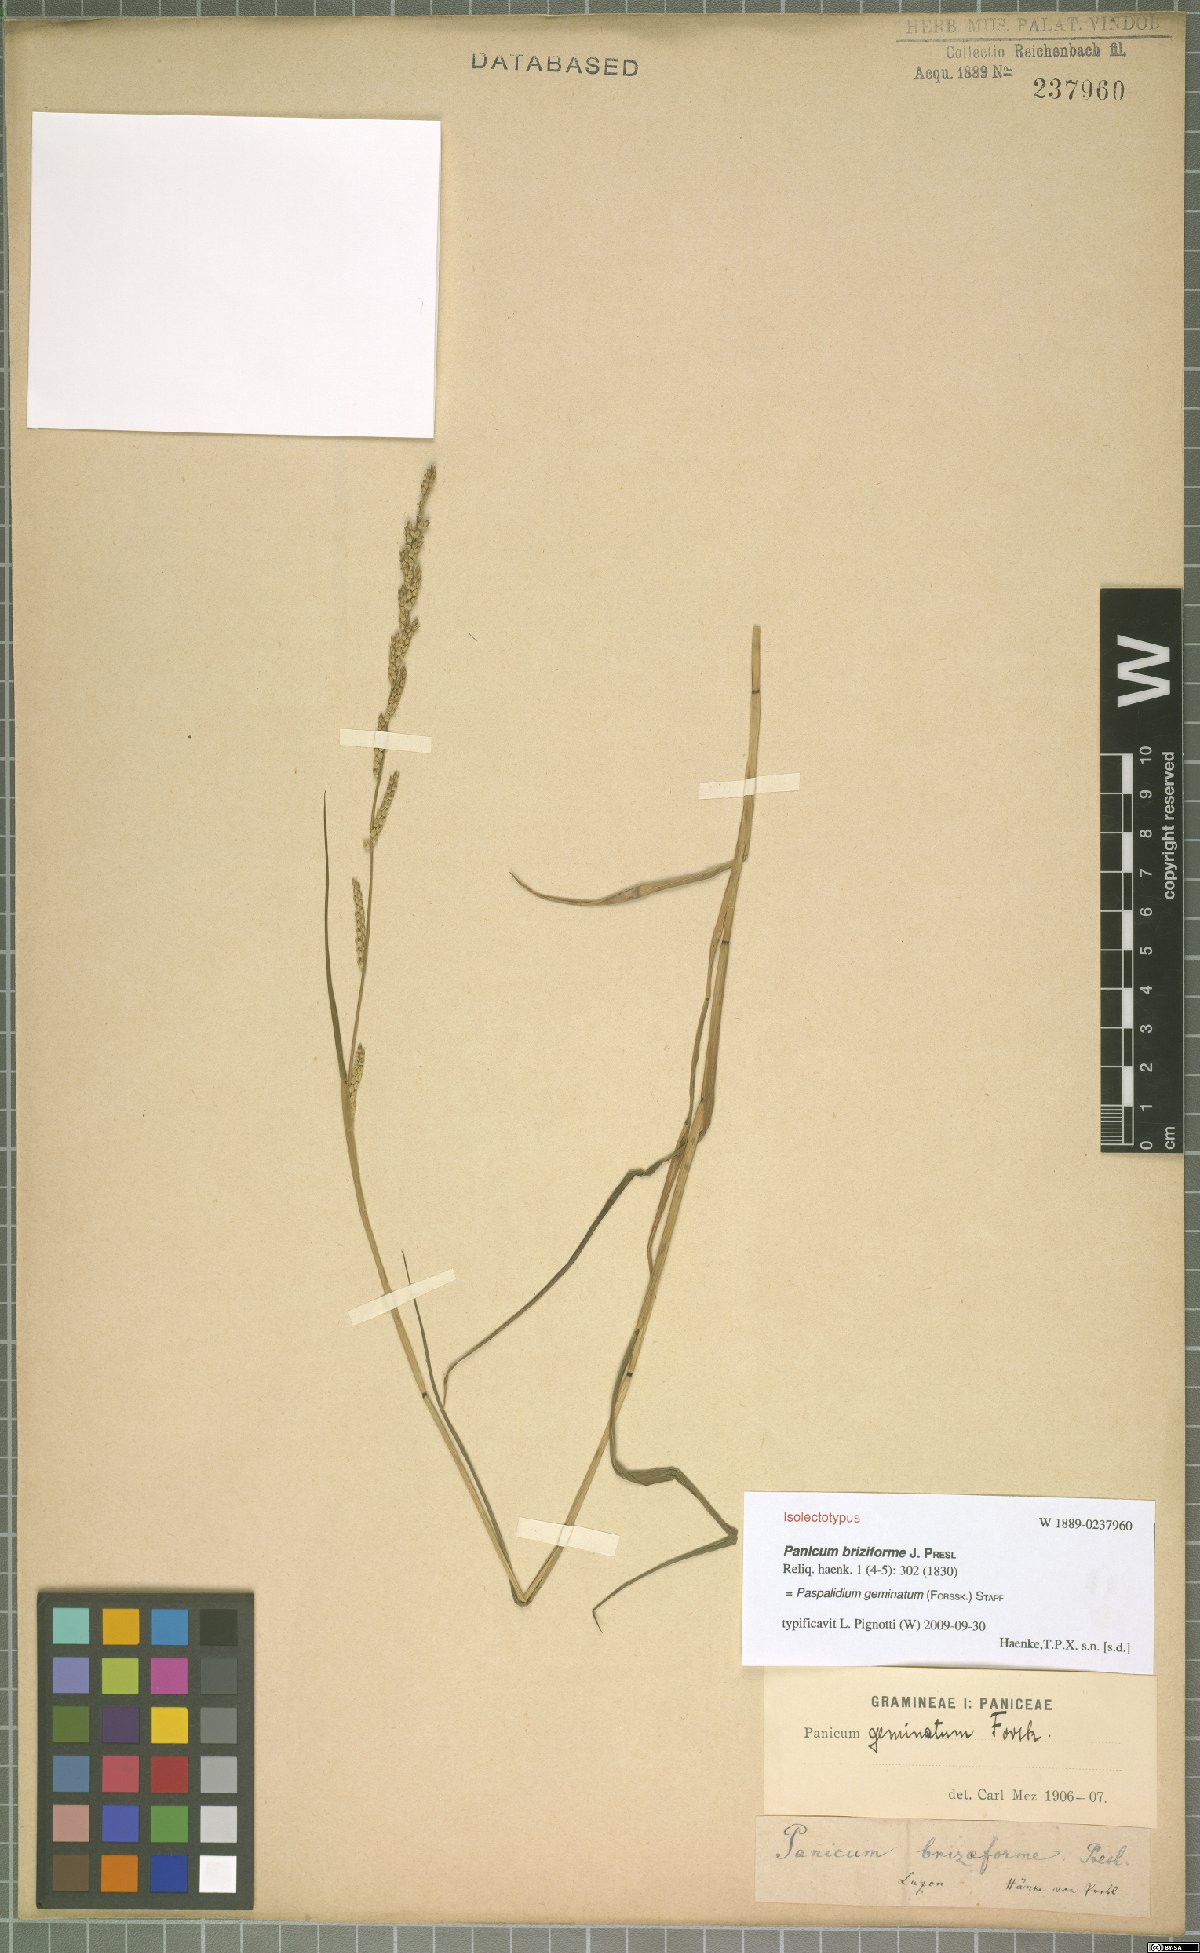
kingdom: Plantae
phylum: Tracheophyta
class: Liliopsida
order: Poales
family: Poaceae
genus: Setaria
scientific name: Setaria geminata
